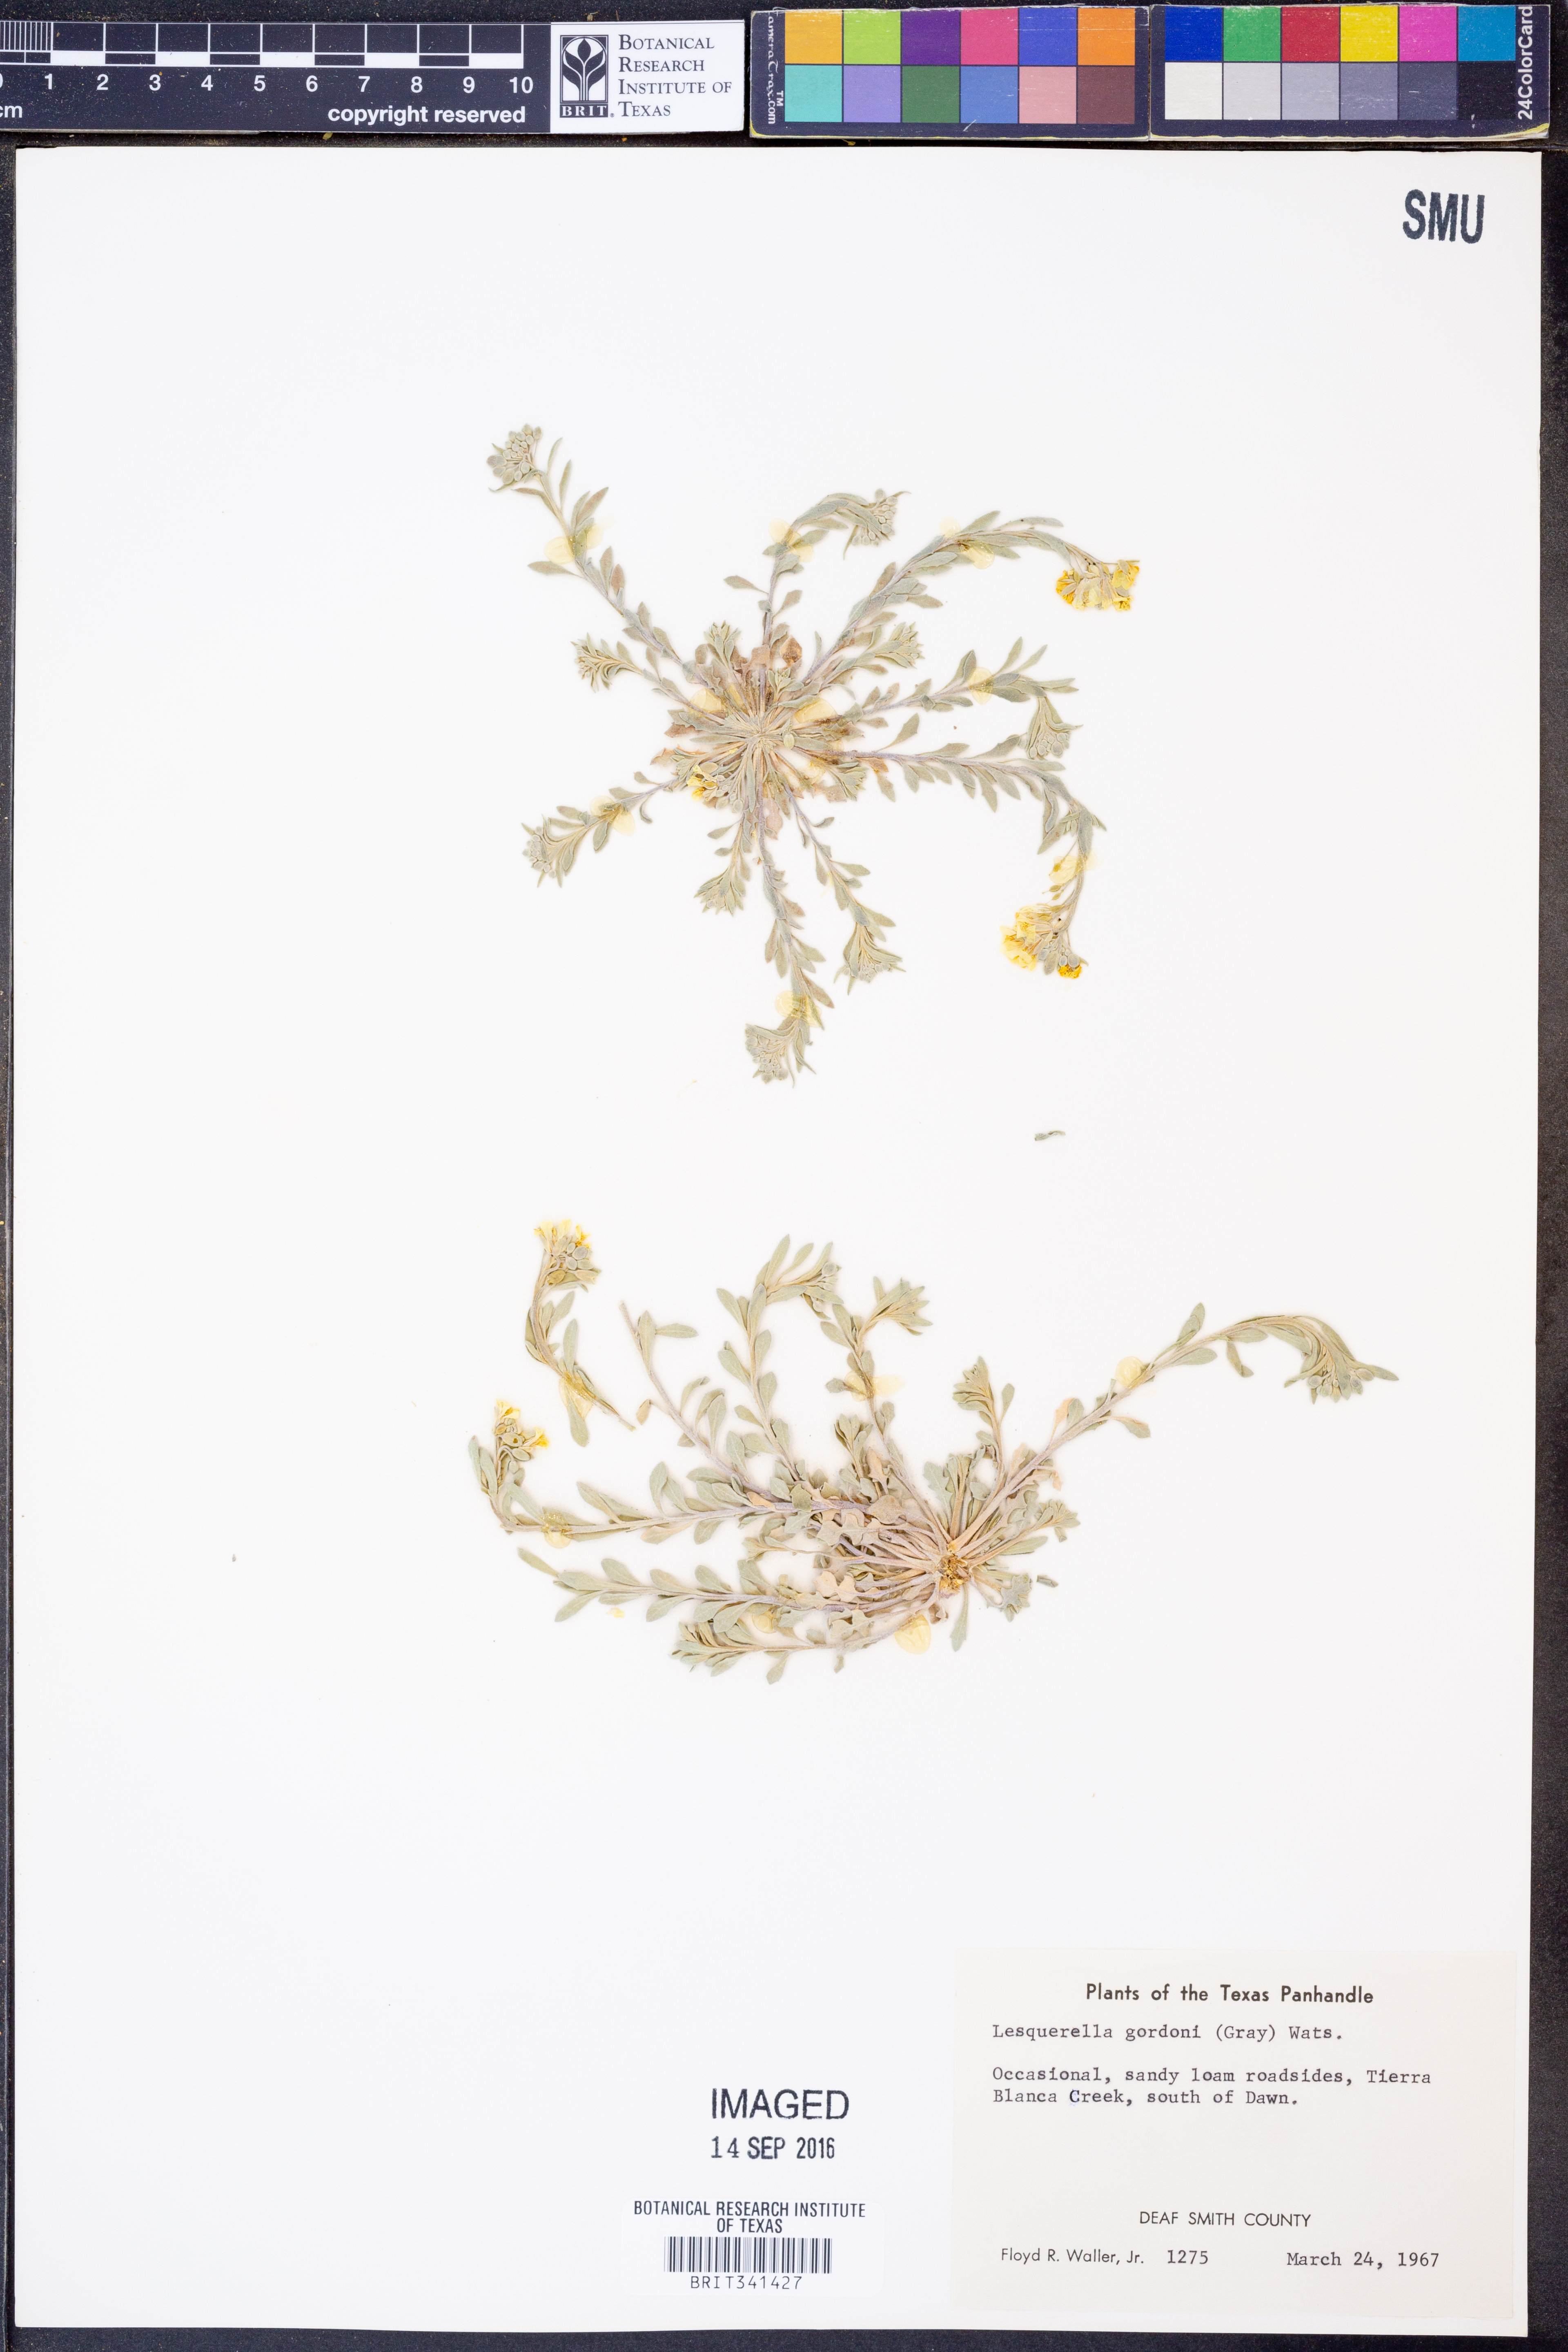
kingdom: Plantae
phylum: Tracheophyta
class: Magnoliopsida
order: Brassicales
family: Brassicaceae
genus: Physaria
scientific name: Physaria gordonii
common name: Gordon's bladderpod
